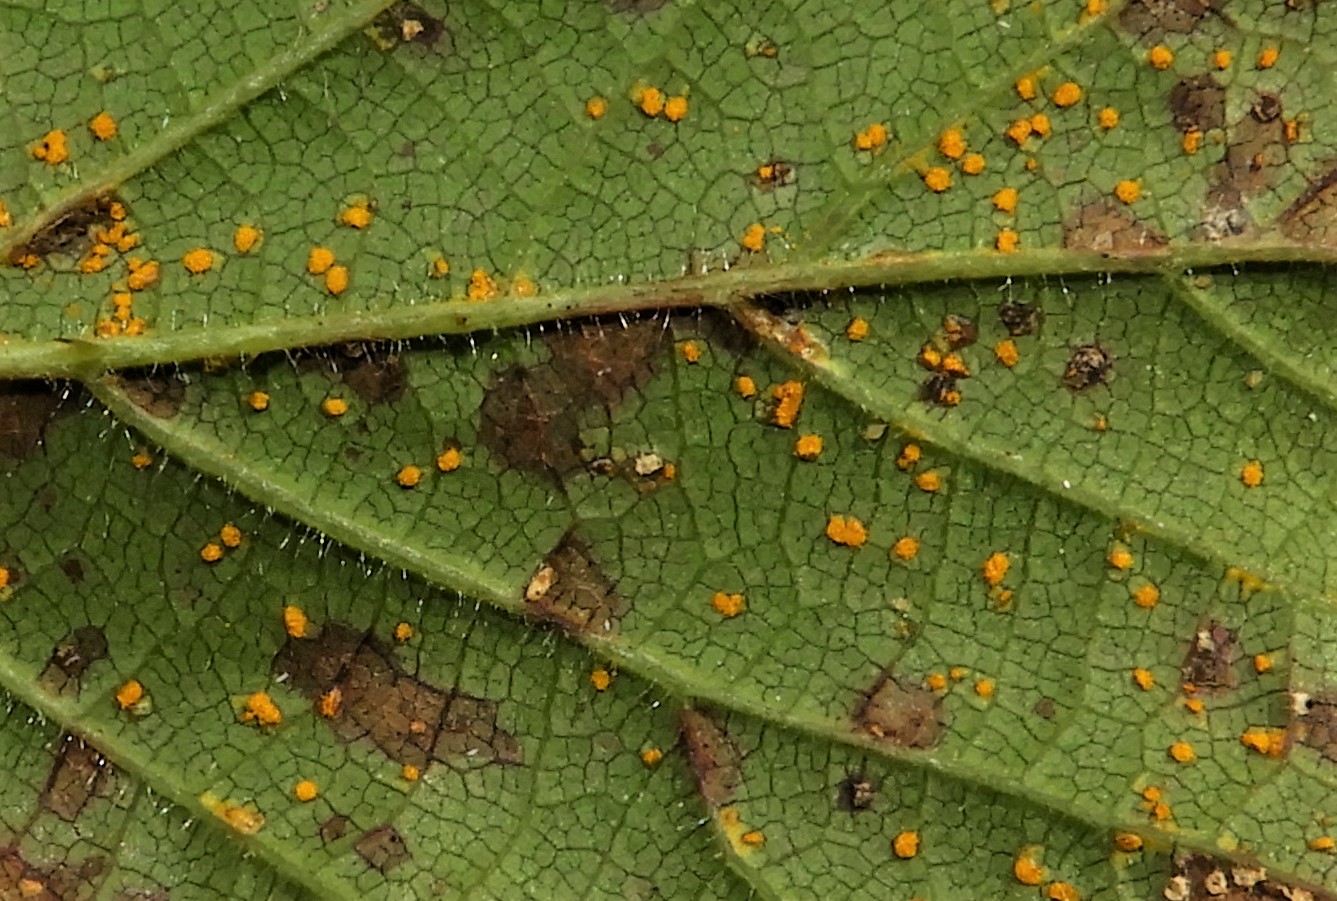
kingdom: Fungi
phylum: Basidiomycota
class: Pucciniomycetes
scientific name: Pucciniomycetes
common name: rustsvampeklassen
